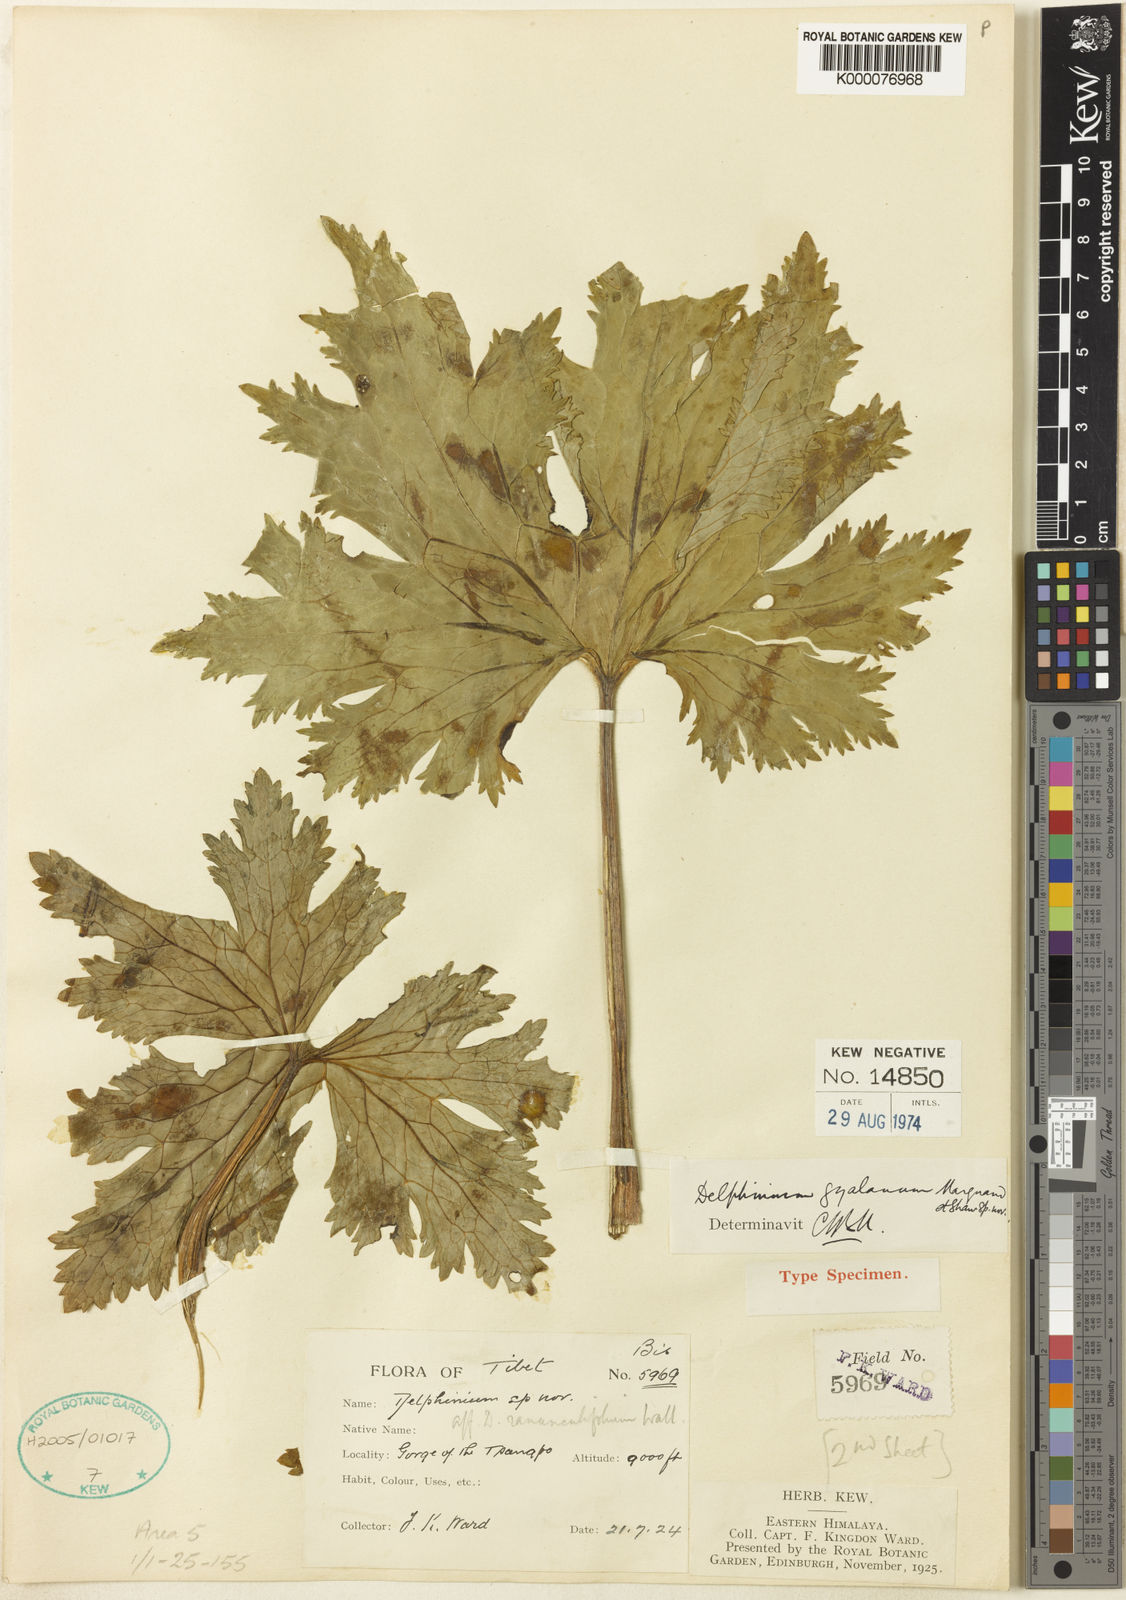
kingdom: Plantae
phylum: Tracheophyta
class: Magnoliopsida
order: Ranunculales
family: Ranunculaceae
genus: Delphinium
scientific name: Delphinium gyalanum
